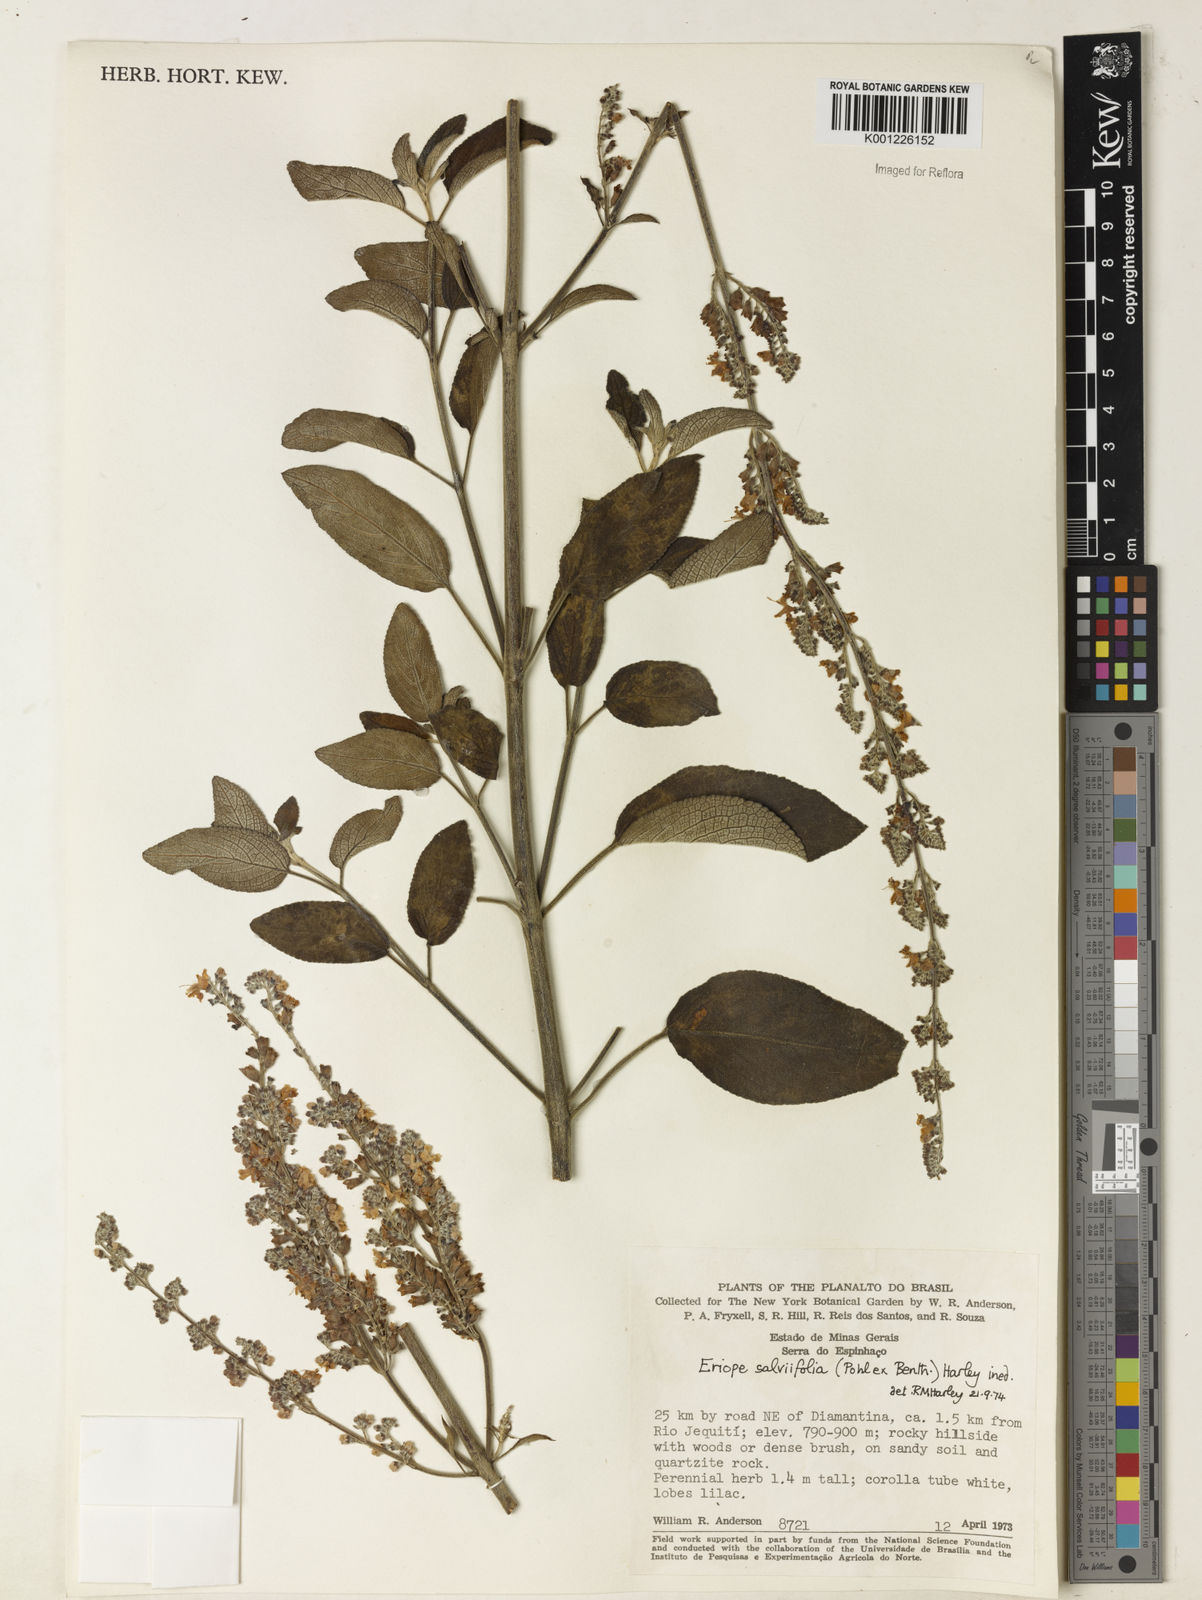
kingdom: Plantae
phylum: Tracheophyta
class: Magnoliopsida
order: Lamiales
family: Lamiaceae
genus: Eriope
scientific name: Eriope salviifolia
